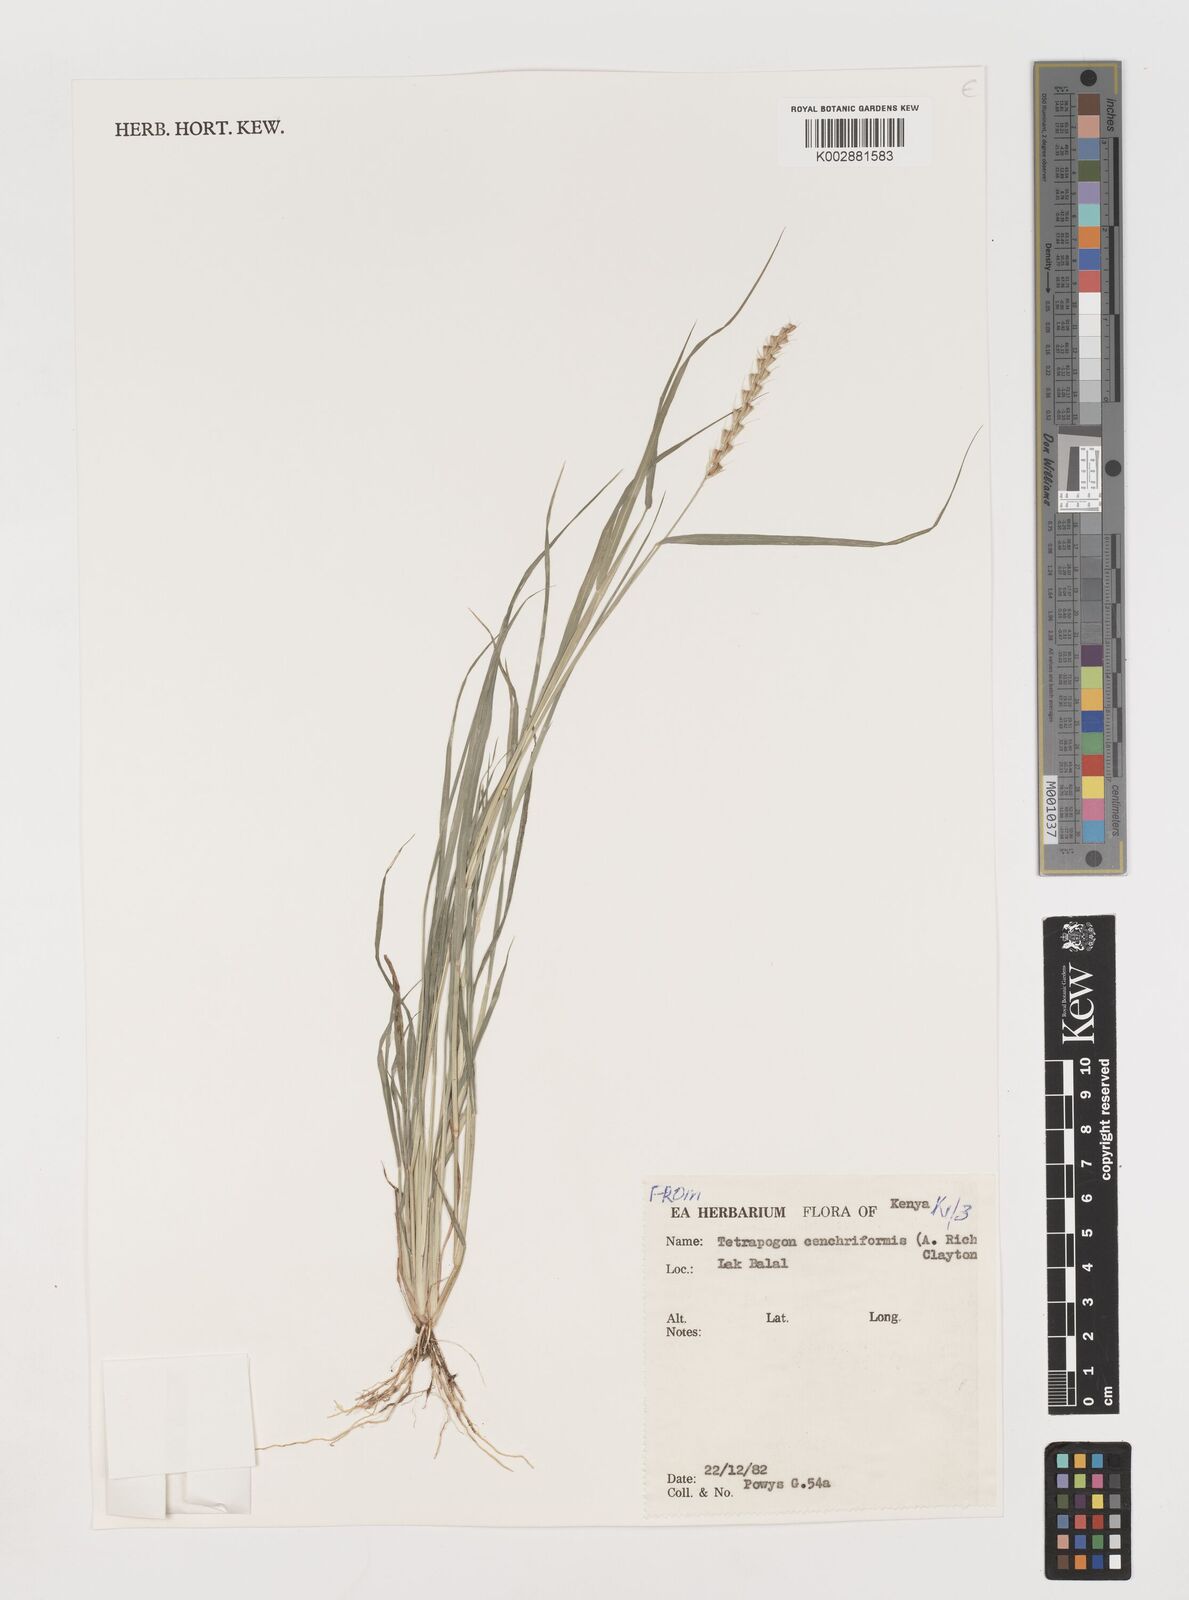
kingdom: Plantae
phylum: Tracheophyta
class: Liliopsida
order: Poales
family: Poaceae
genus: Tetrapogon
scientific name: Tetrapogon cenchriformis
